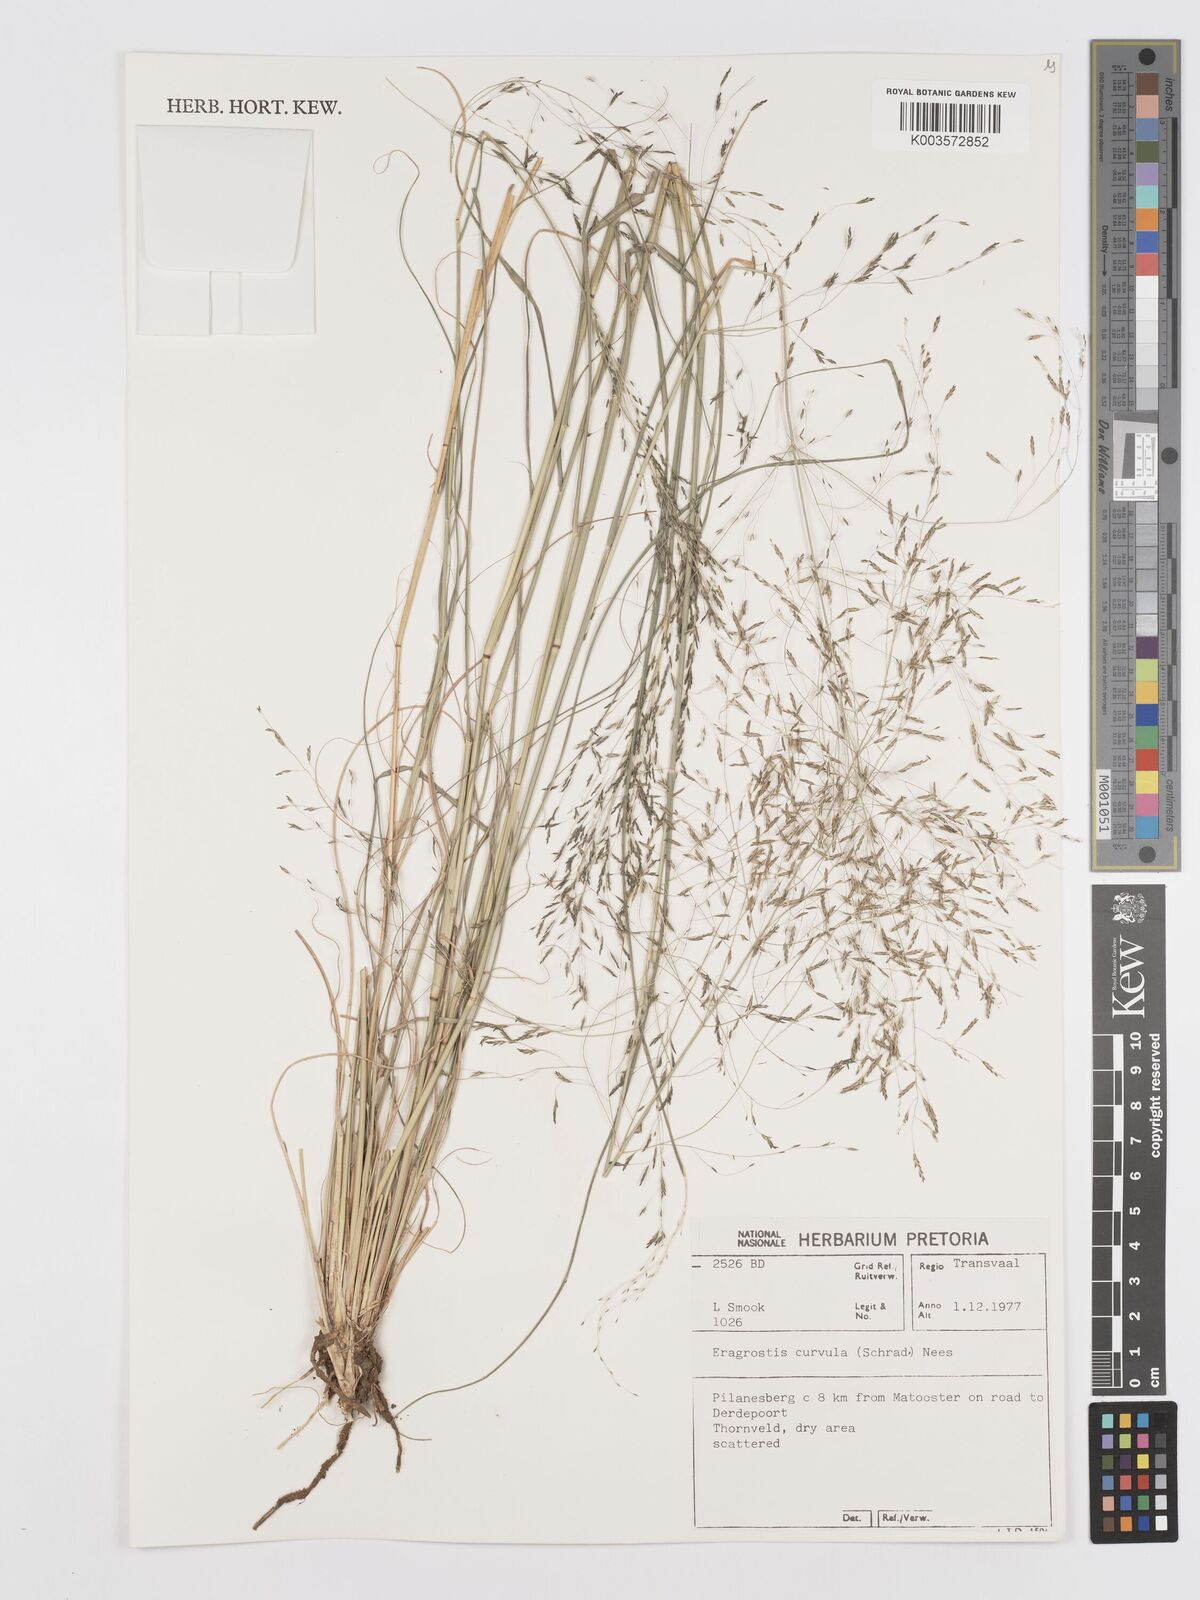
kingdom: Plantae
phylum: Tracheophyta
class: Liliopsida
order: Poales
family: Poaceae
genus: Eragrostis
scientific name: Eragrostis curvula
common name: African love-grass
